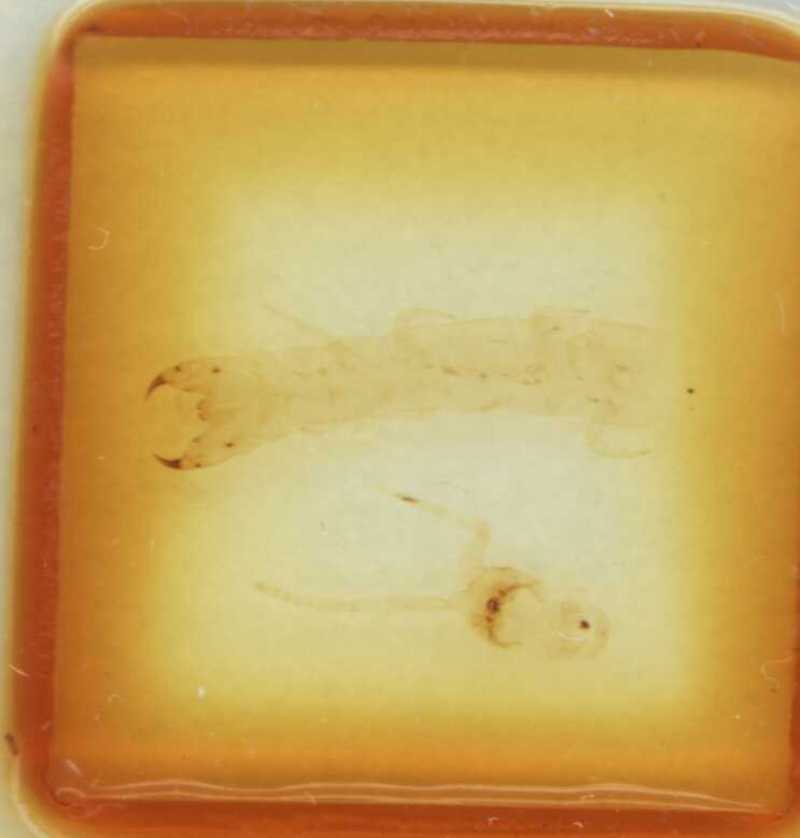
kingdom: Animalia
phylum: Arthropoda
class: Chilopoda
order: Scolopendromorpha
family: Scolopendridae
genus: Cormocephalus
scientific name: Cormocephalus andinus
